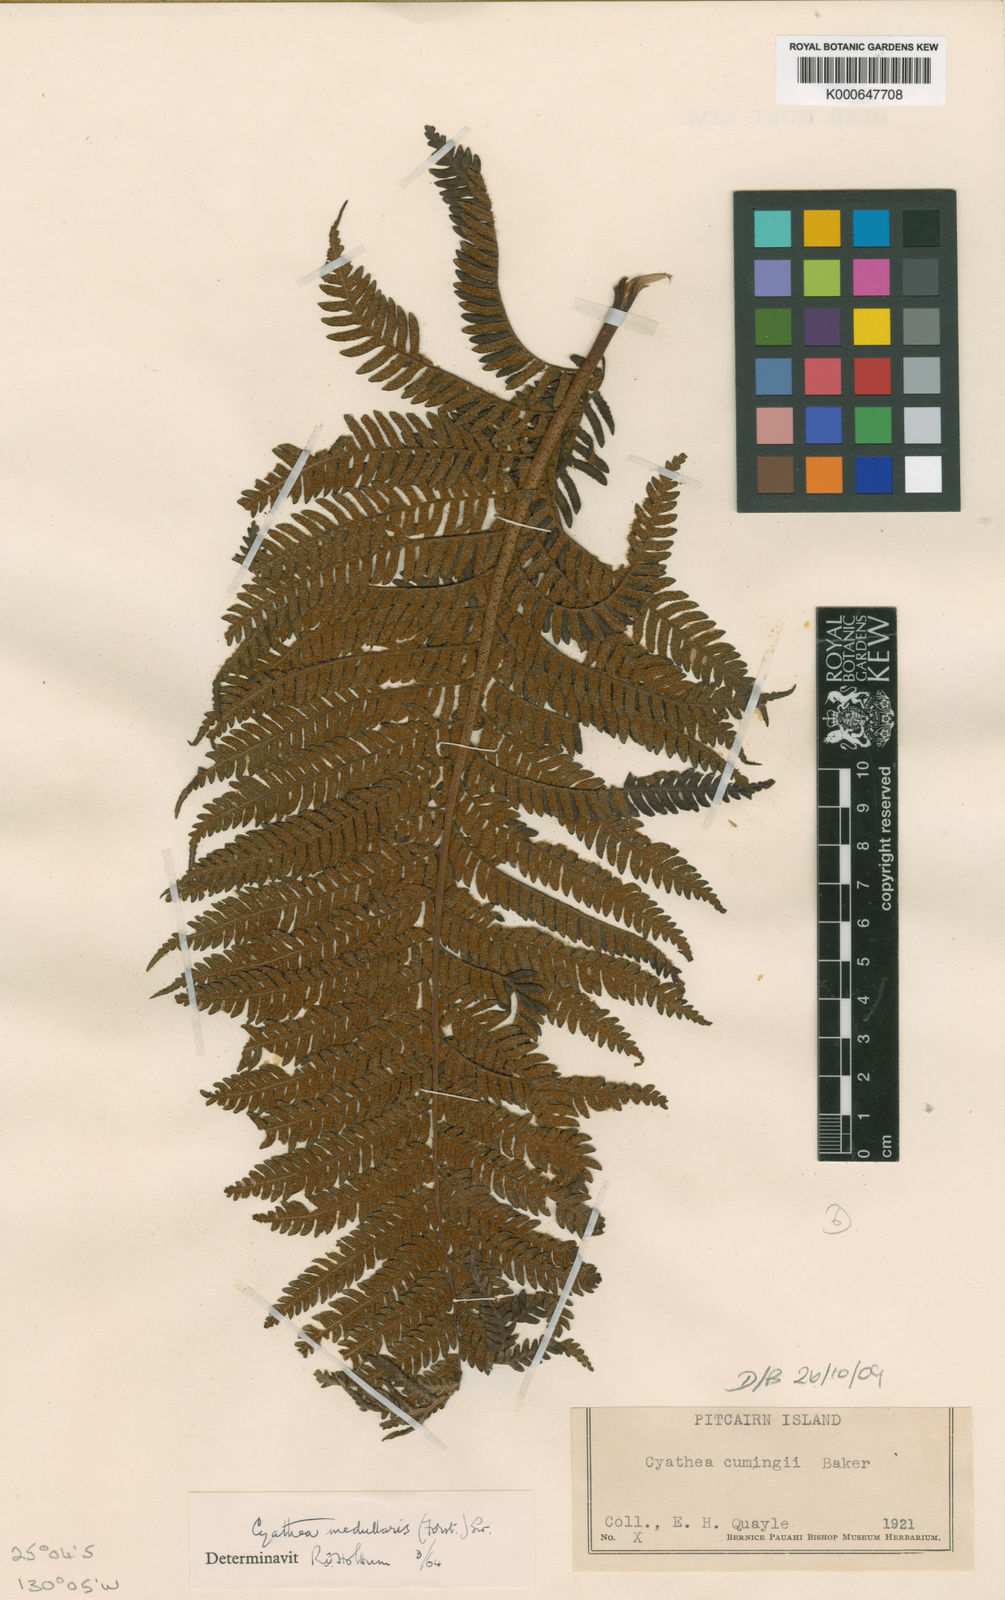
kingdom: Plantae
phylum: Tracheophyta
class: Polypodiopsida
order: Cyatheales
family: Cyatheaceae
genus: Sphaeropteris
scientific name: Sphaeropteris medullaris
